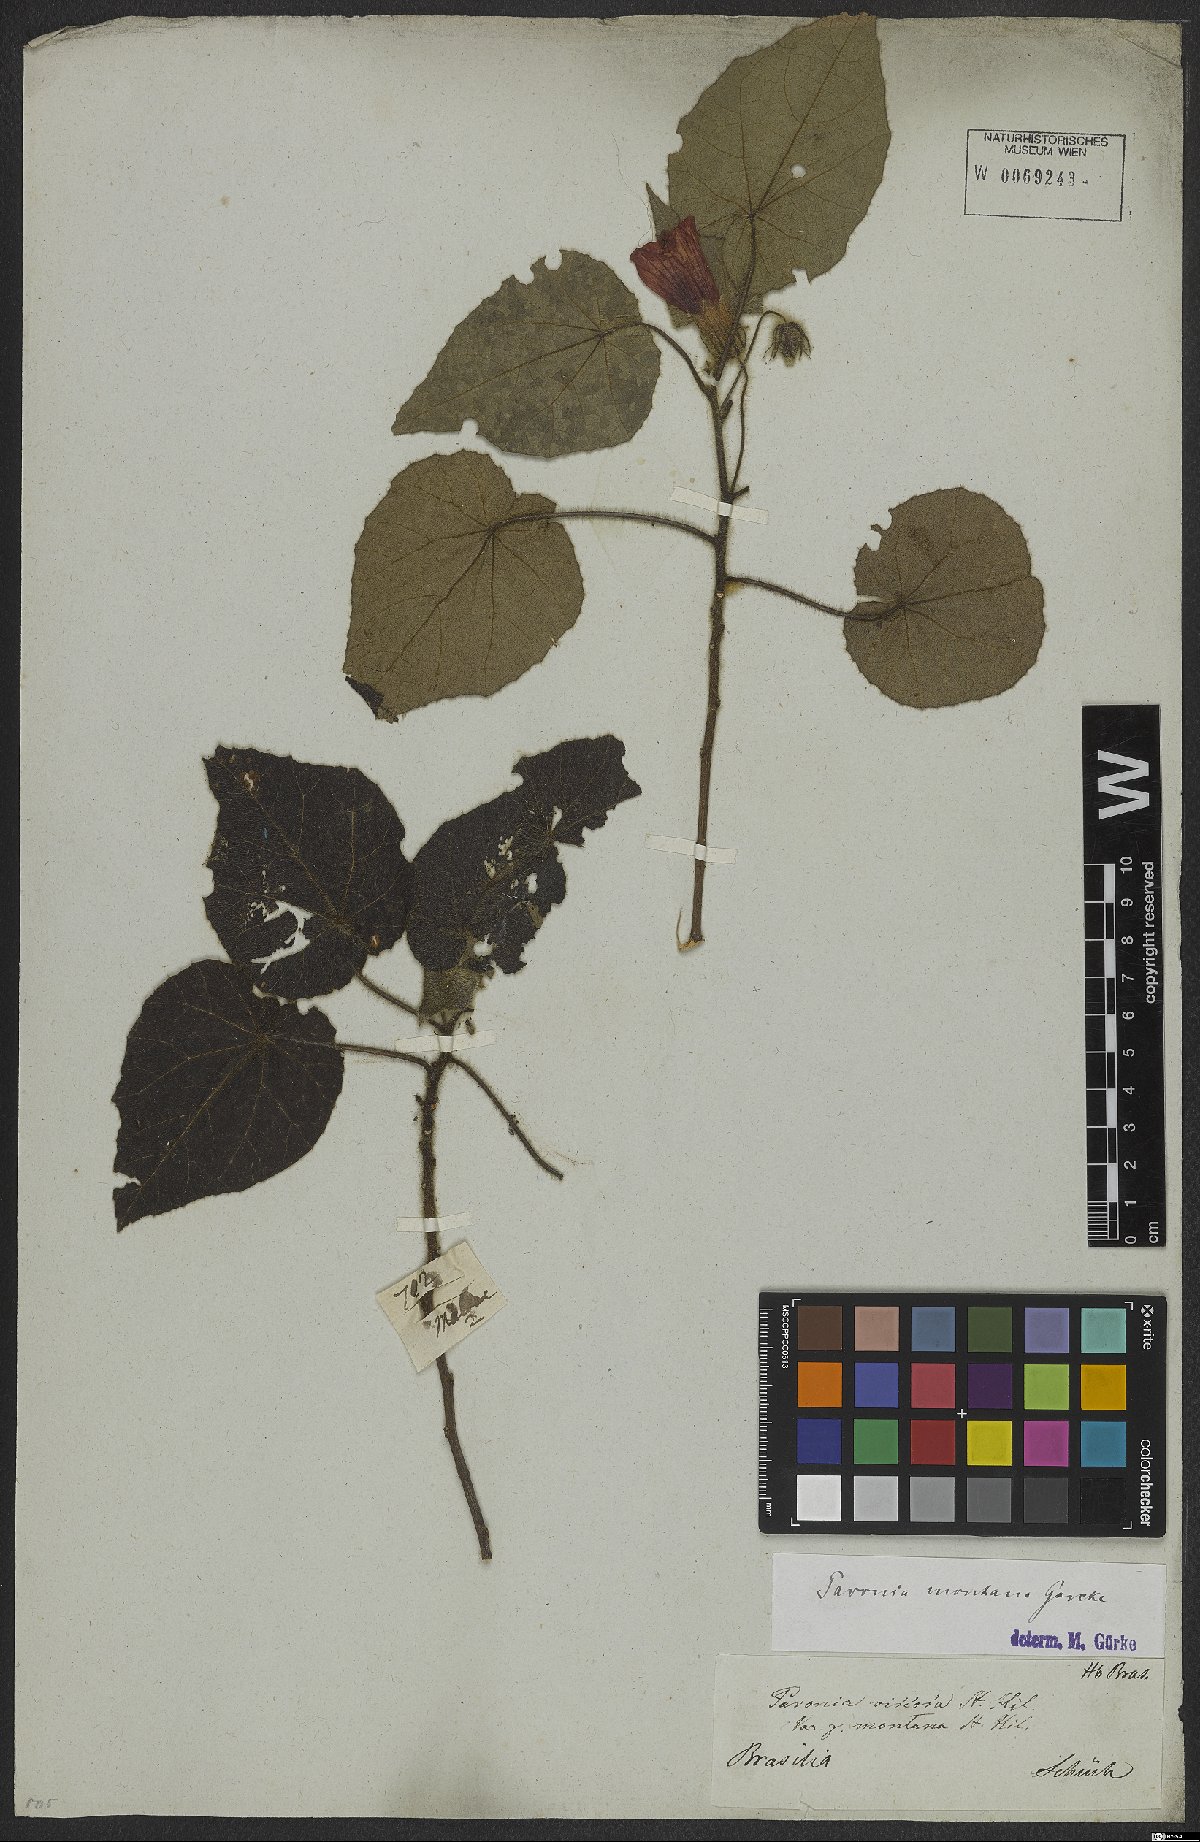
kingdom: Plantae
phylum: Tracheophyta
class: Magnoliopsida
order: Malvales
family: Malvaceae
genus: Pavonia
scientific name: Pavonia montana
